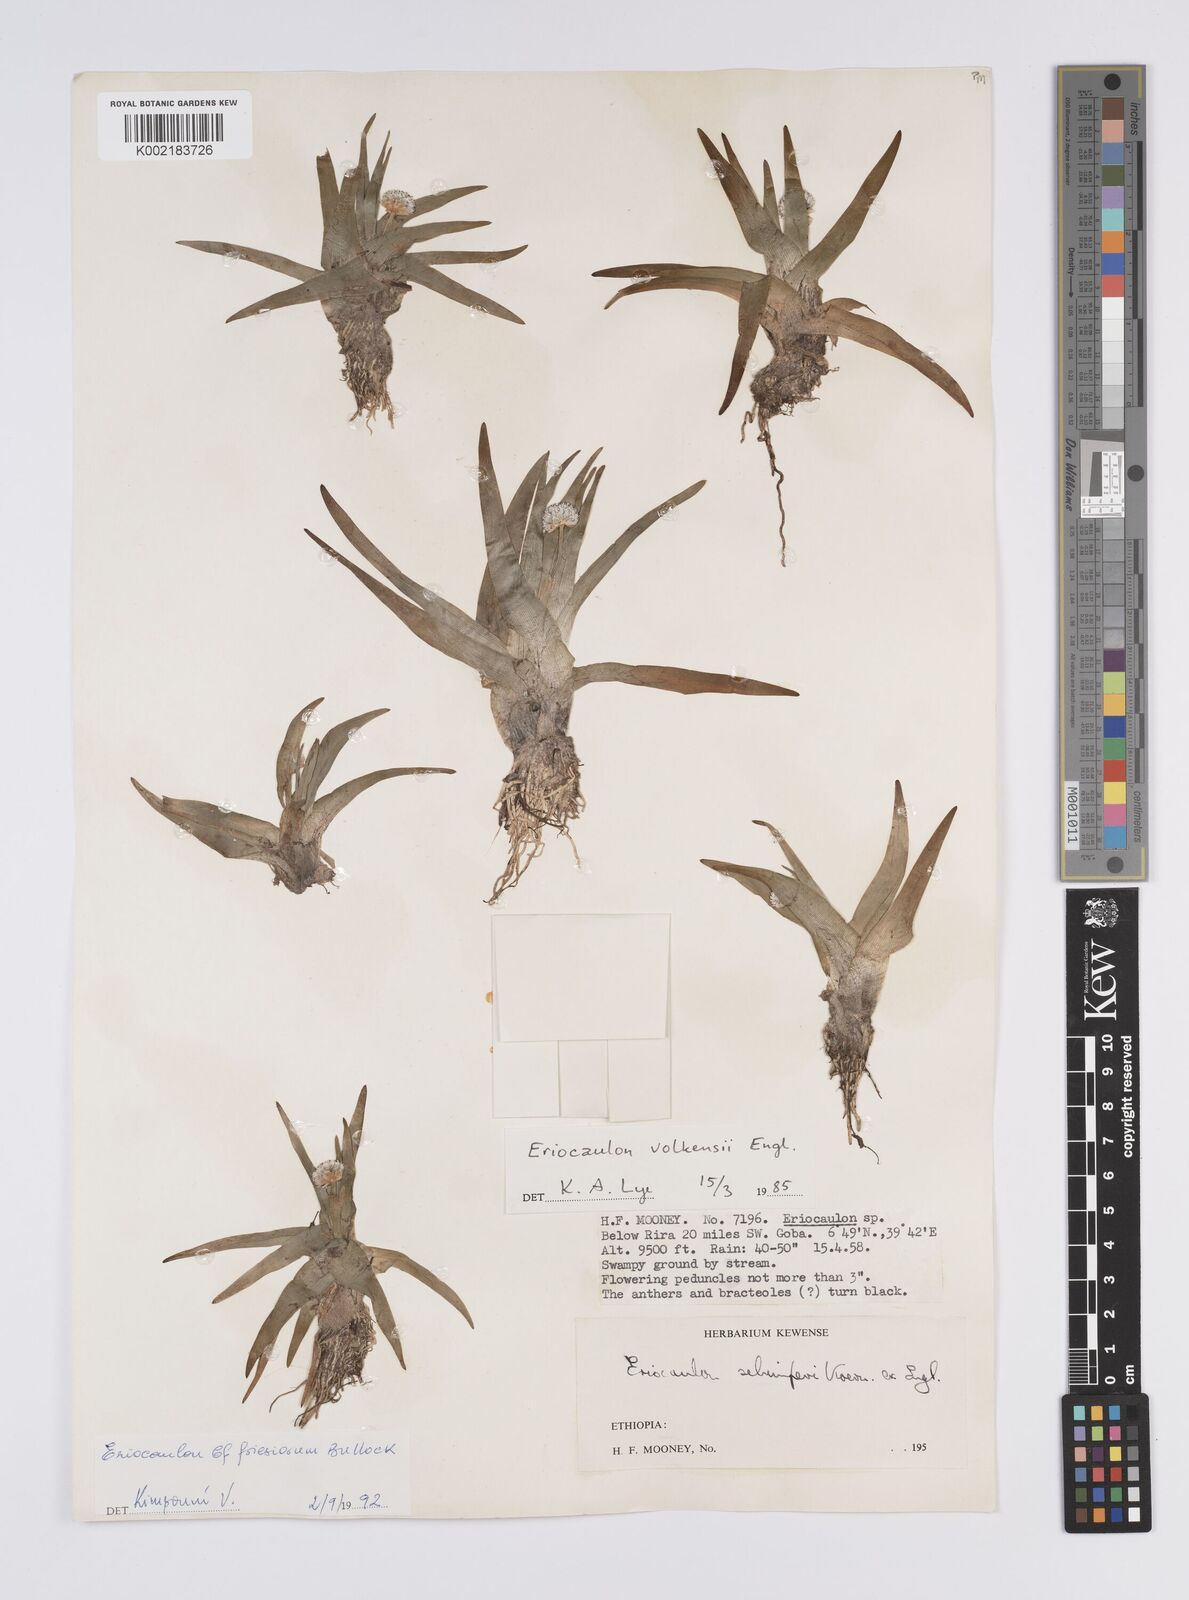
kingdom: Plantae
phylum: Tracheophyta
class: Liliopsida
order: Poales
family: Eriocaulaceae
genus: Eriocaulon
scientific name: Eriocaulon schimperi
